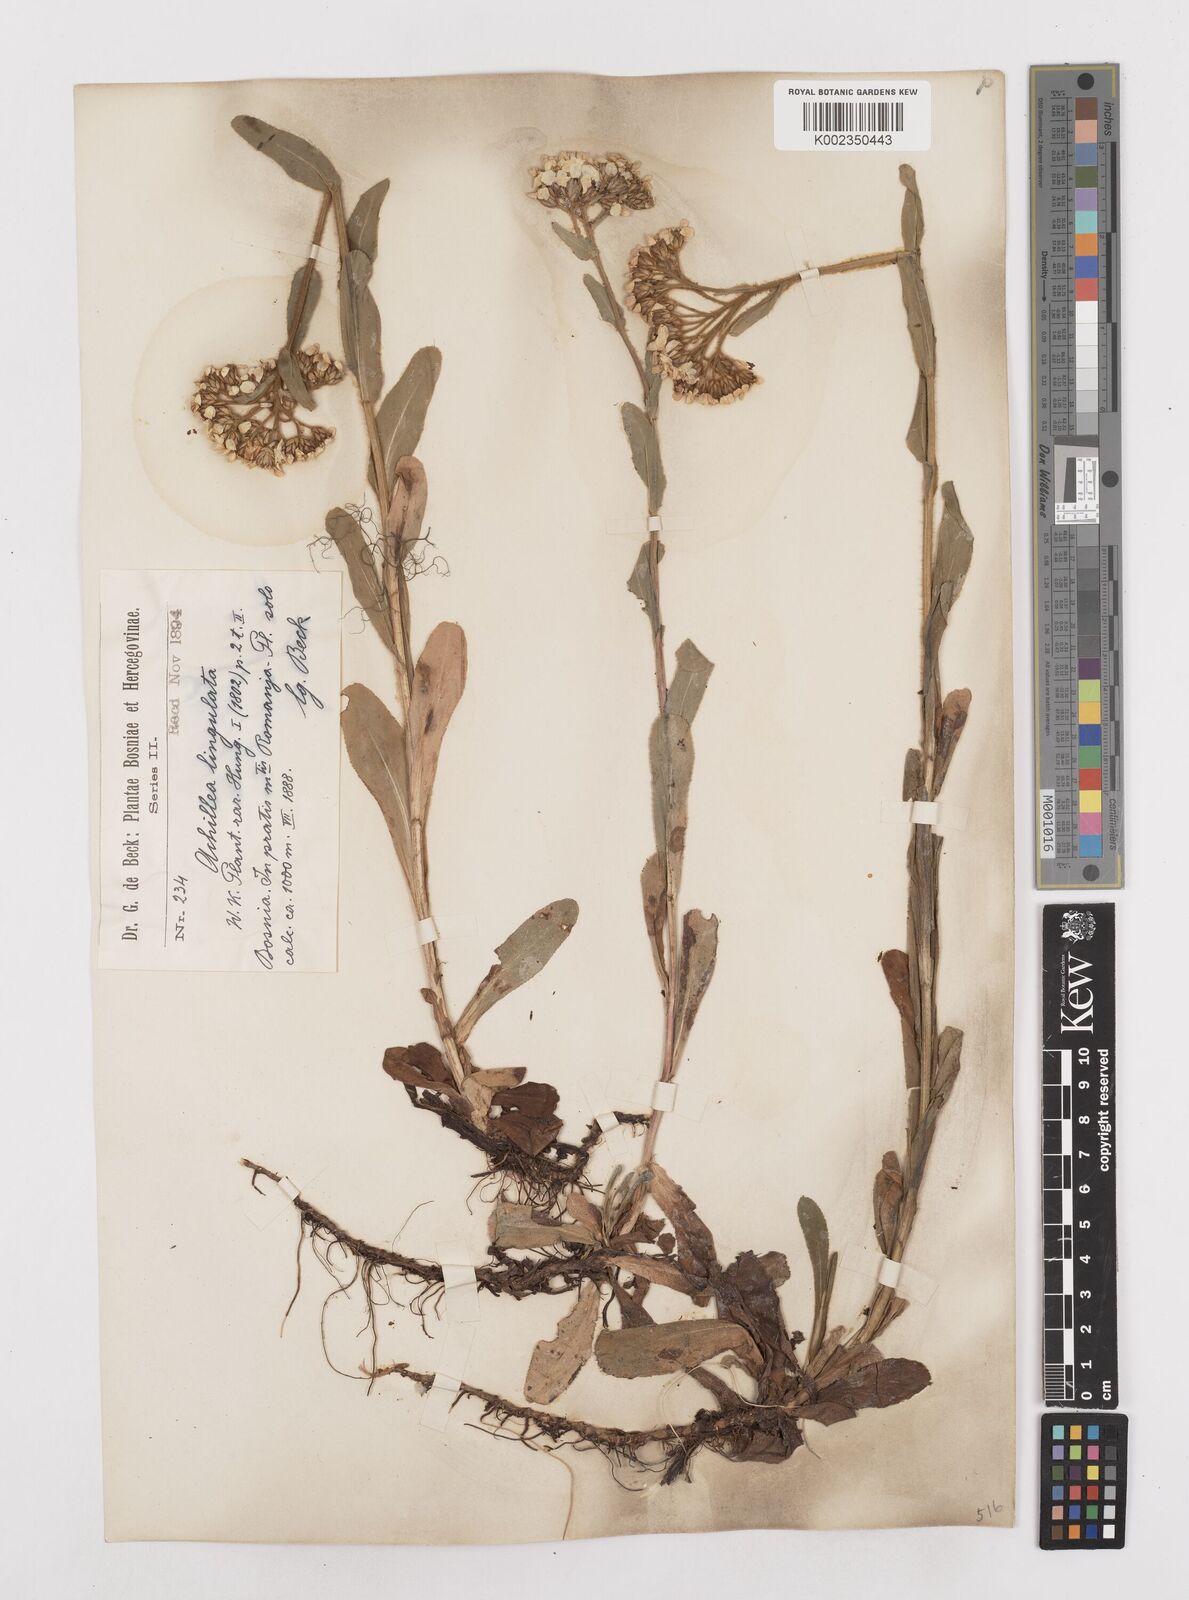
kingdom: Plantae
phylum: Tracheophyta
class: Magnoliopsida
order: Asterales
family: Asteraceae
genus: Achillea
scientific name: Achillea lingulata
